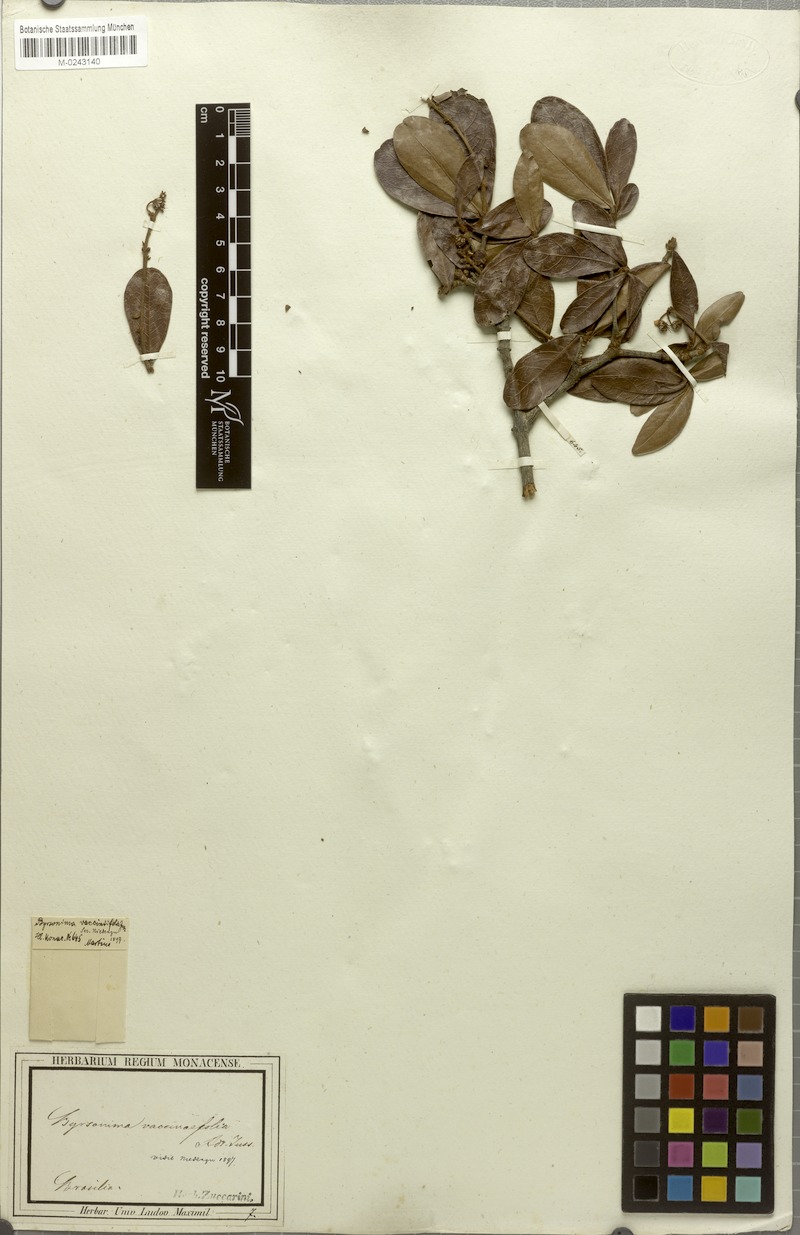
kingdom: Plantae
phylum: Tracheophyta
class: Magnoliopsida
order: Malpighiales
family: Malpighiaceae
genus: Byrsonima
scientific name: Byrsonima vacciniifolia
